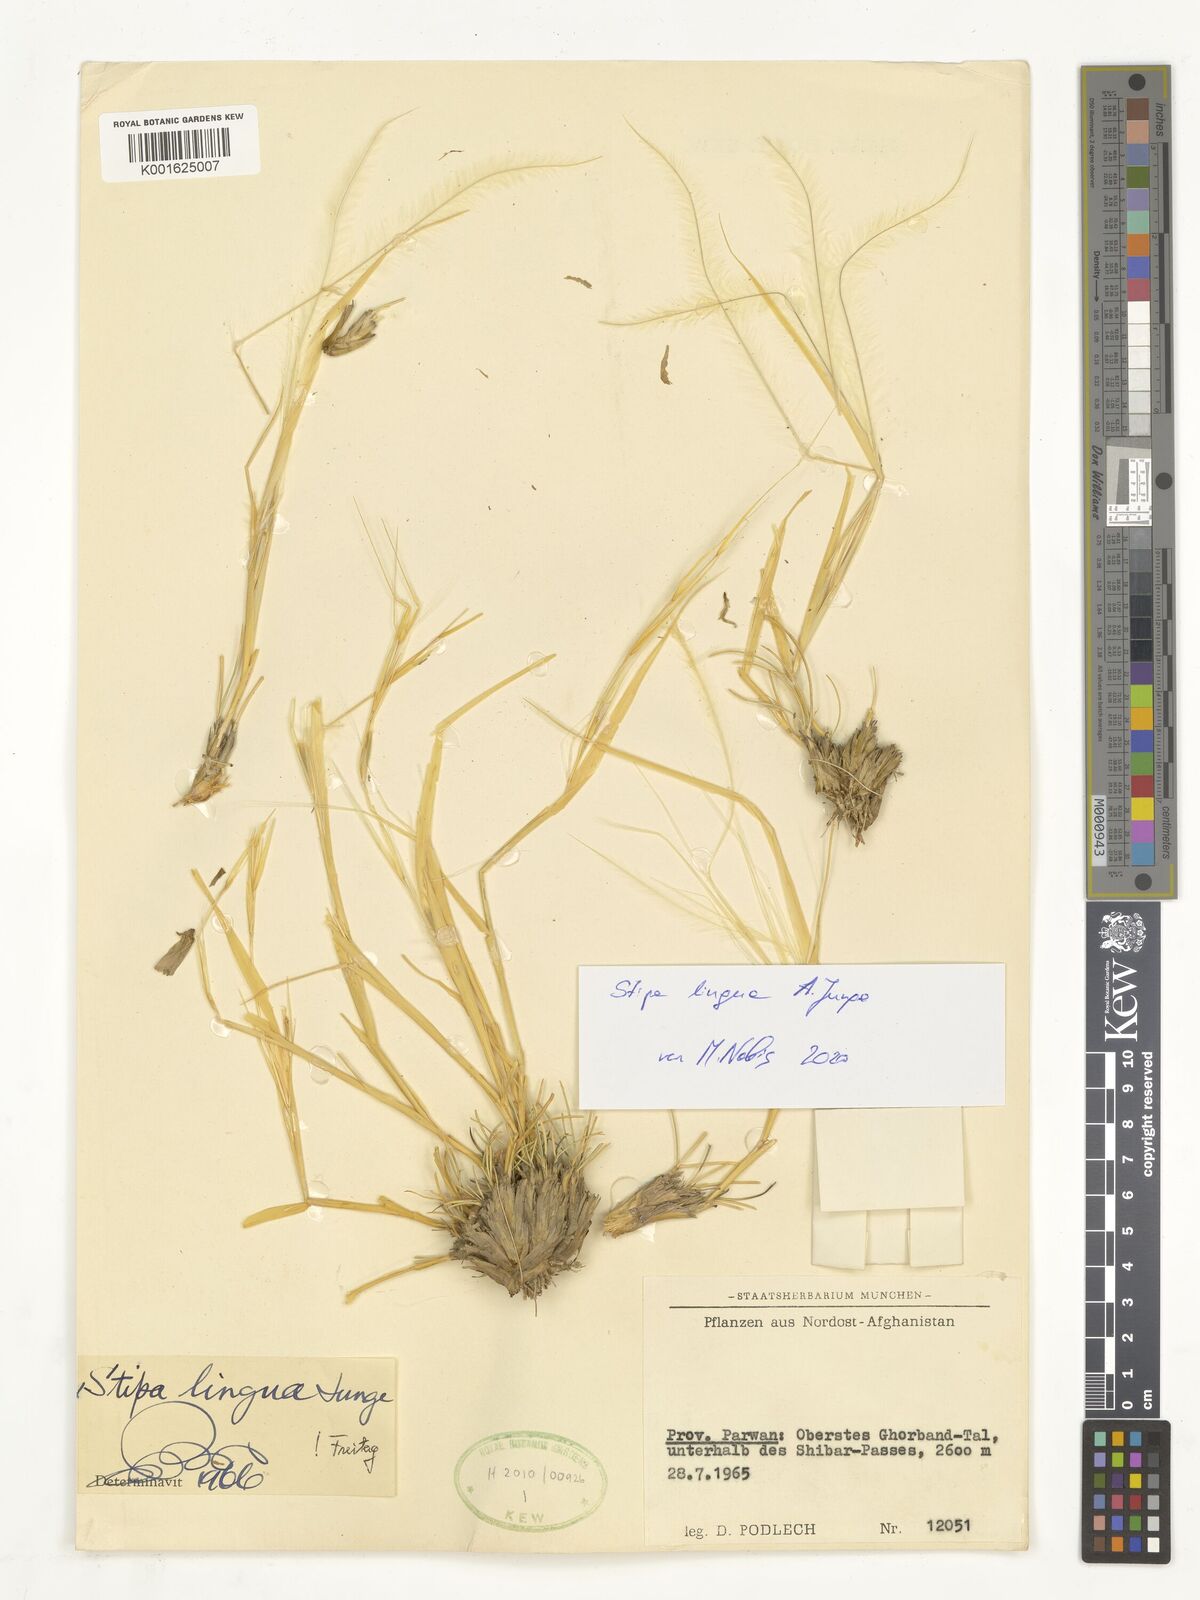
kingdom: Plantae
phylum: Tracheophyta
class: Liliopsida
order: Poales
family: Poaceae
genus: Stipa
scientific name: Stipa lingua
